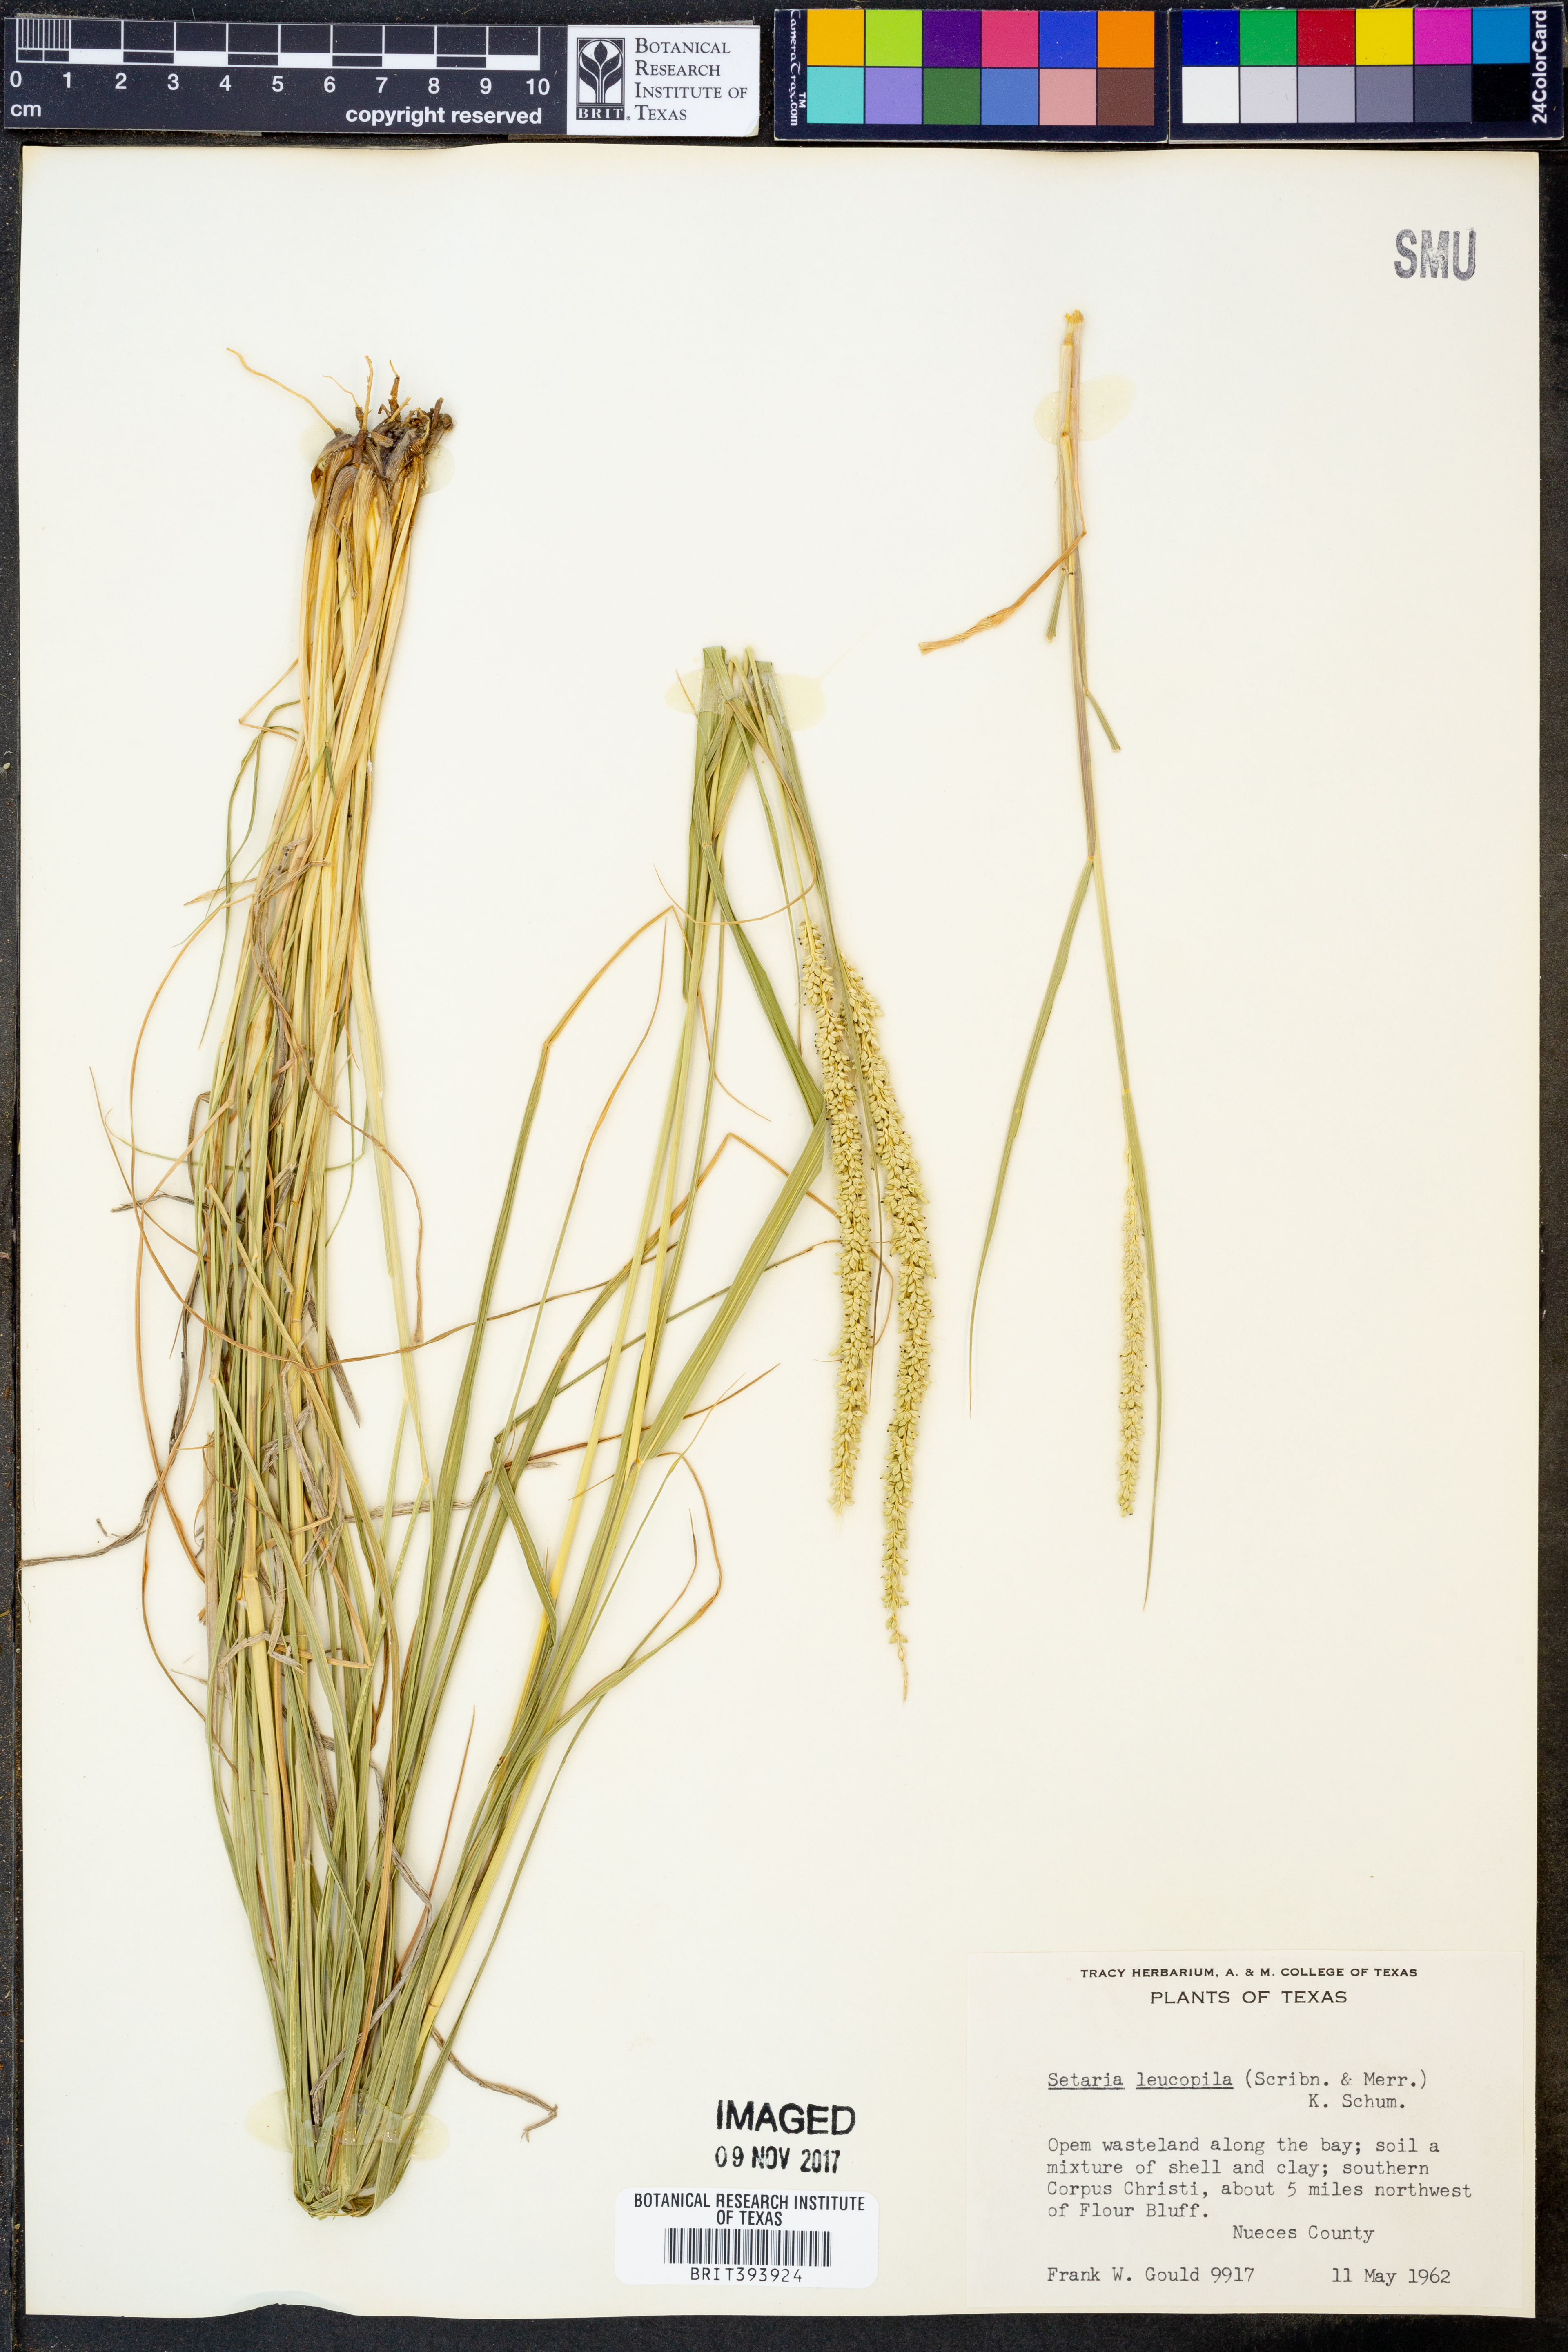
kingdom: Plantae
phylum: Tracheophyta
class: Liliopsida
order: Poales
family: Poaceae
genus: Setaria
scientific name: Setaria leucopila
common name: Plains bristle grass
